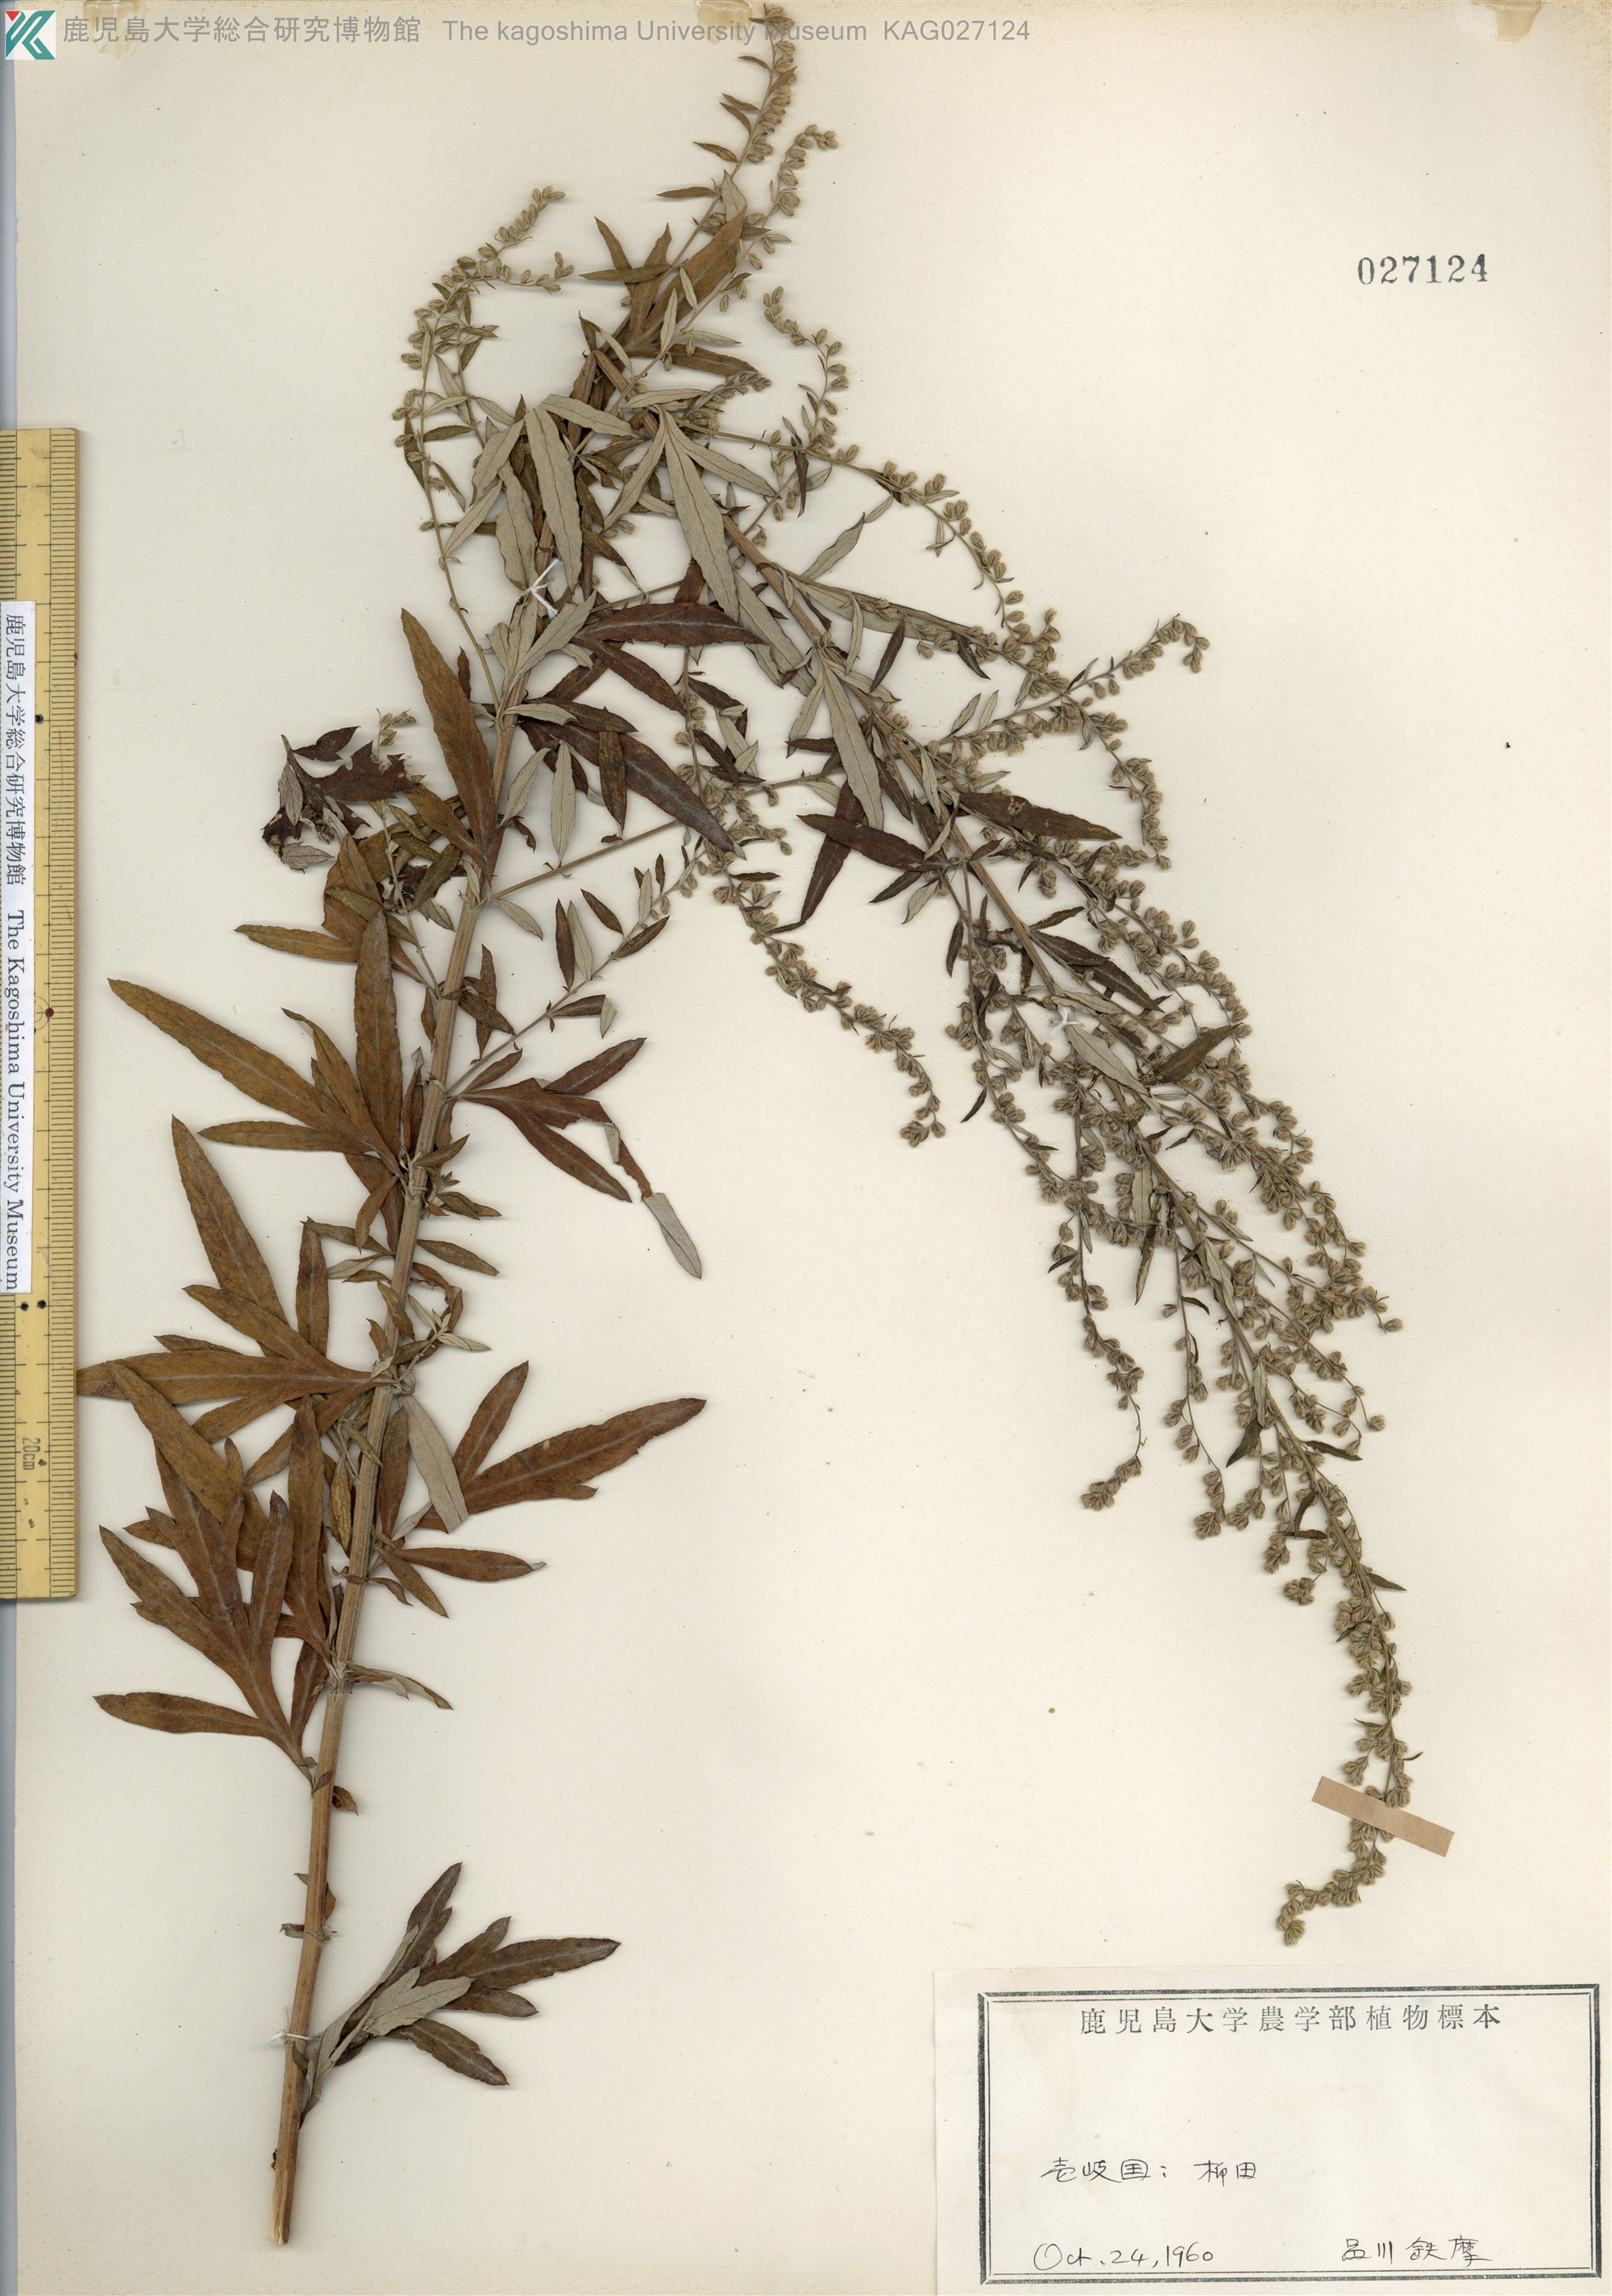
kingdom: Plantae
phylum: Tracheophyta
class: Magnoliopsida
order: Asterales
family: Asteraceae
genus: Artemisia
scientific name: Artemisia indica
